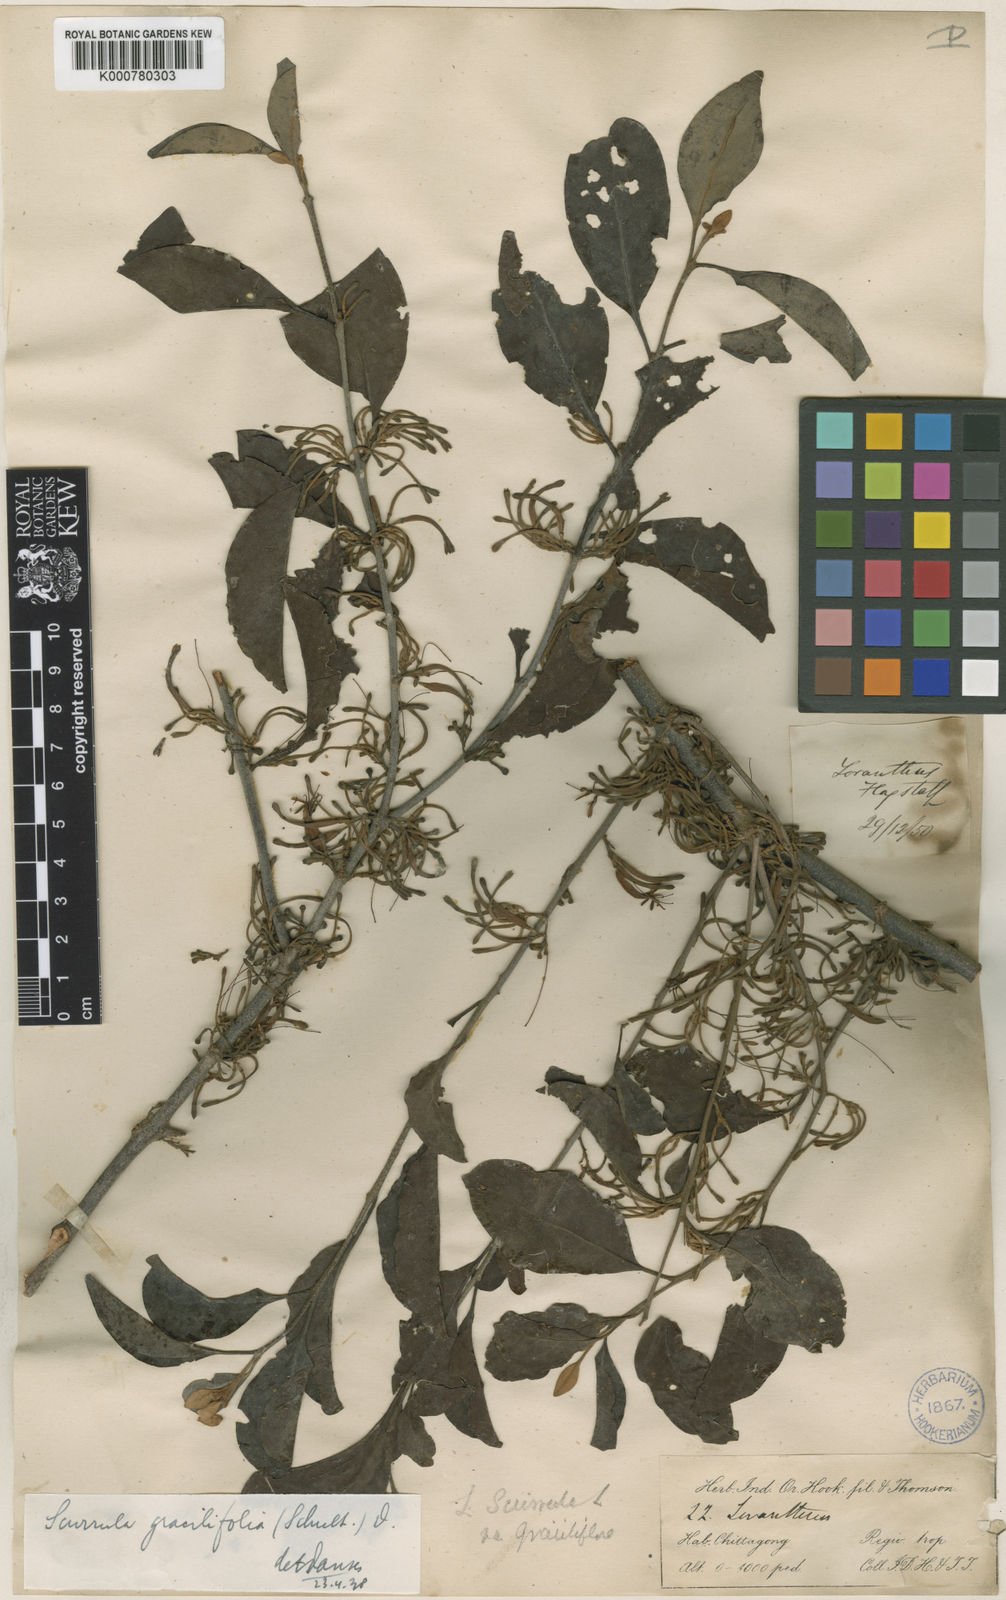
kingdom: Plantae
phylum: Tracheophyta
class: Magnoliopsida
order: Santalales
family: Loranthaceae
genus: Scurrula
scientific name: Scurrula gracilifolia
